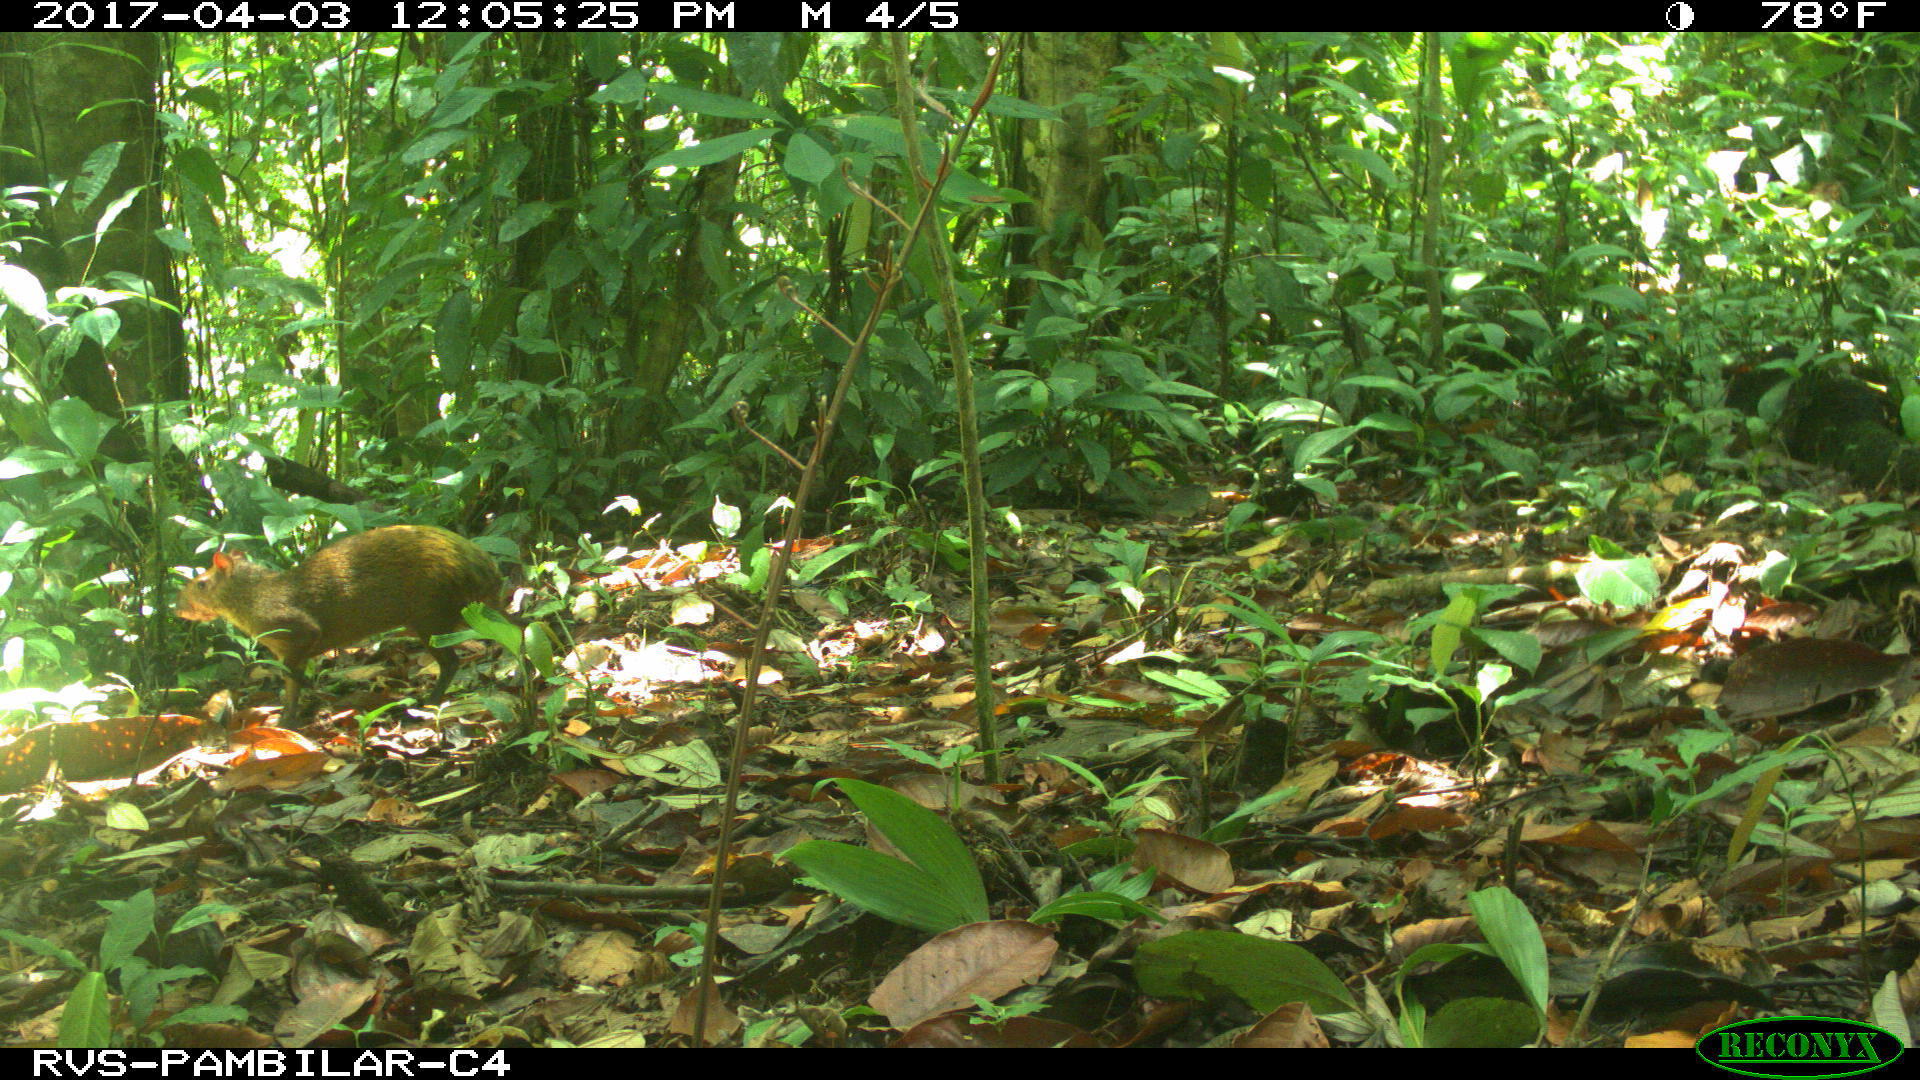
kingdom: Animalia
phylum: Chordata
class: Mammalia
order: Rodentia
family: Dasyproctidae
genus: Dasyprocta
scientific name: Dasyprocta punctata
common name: Central american agouti
